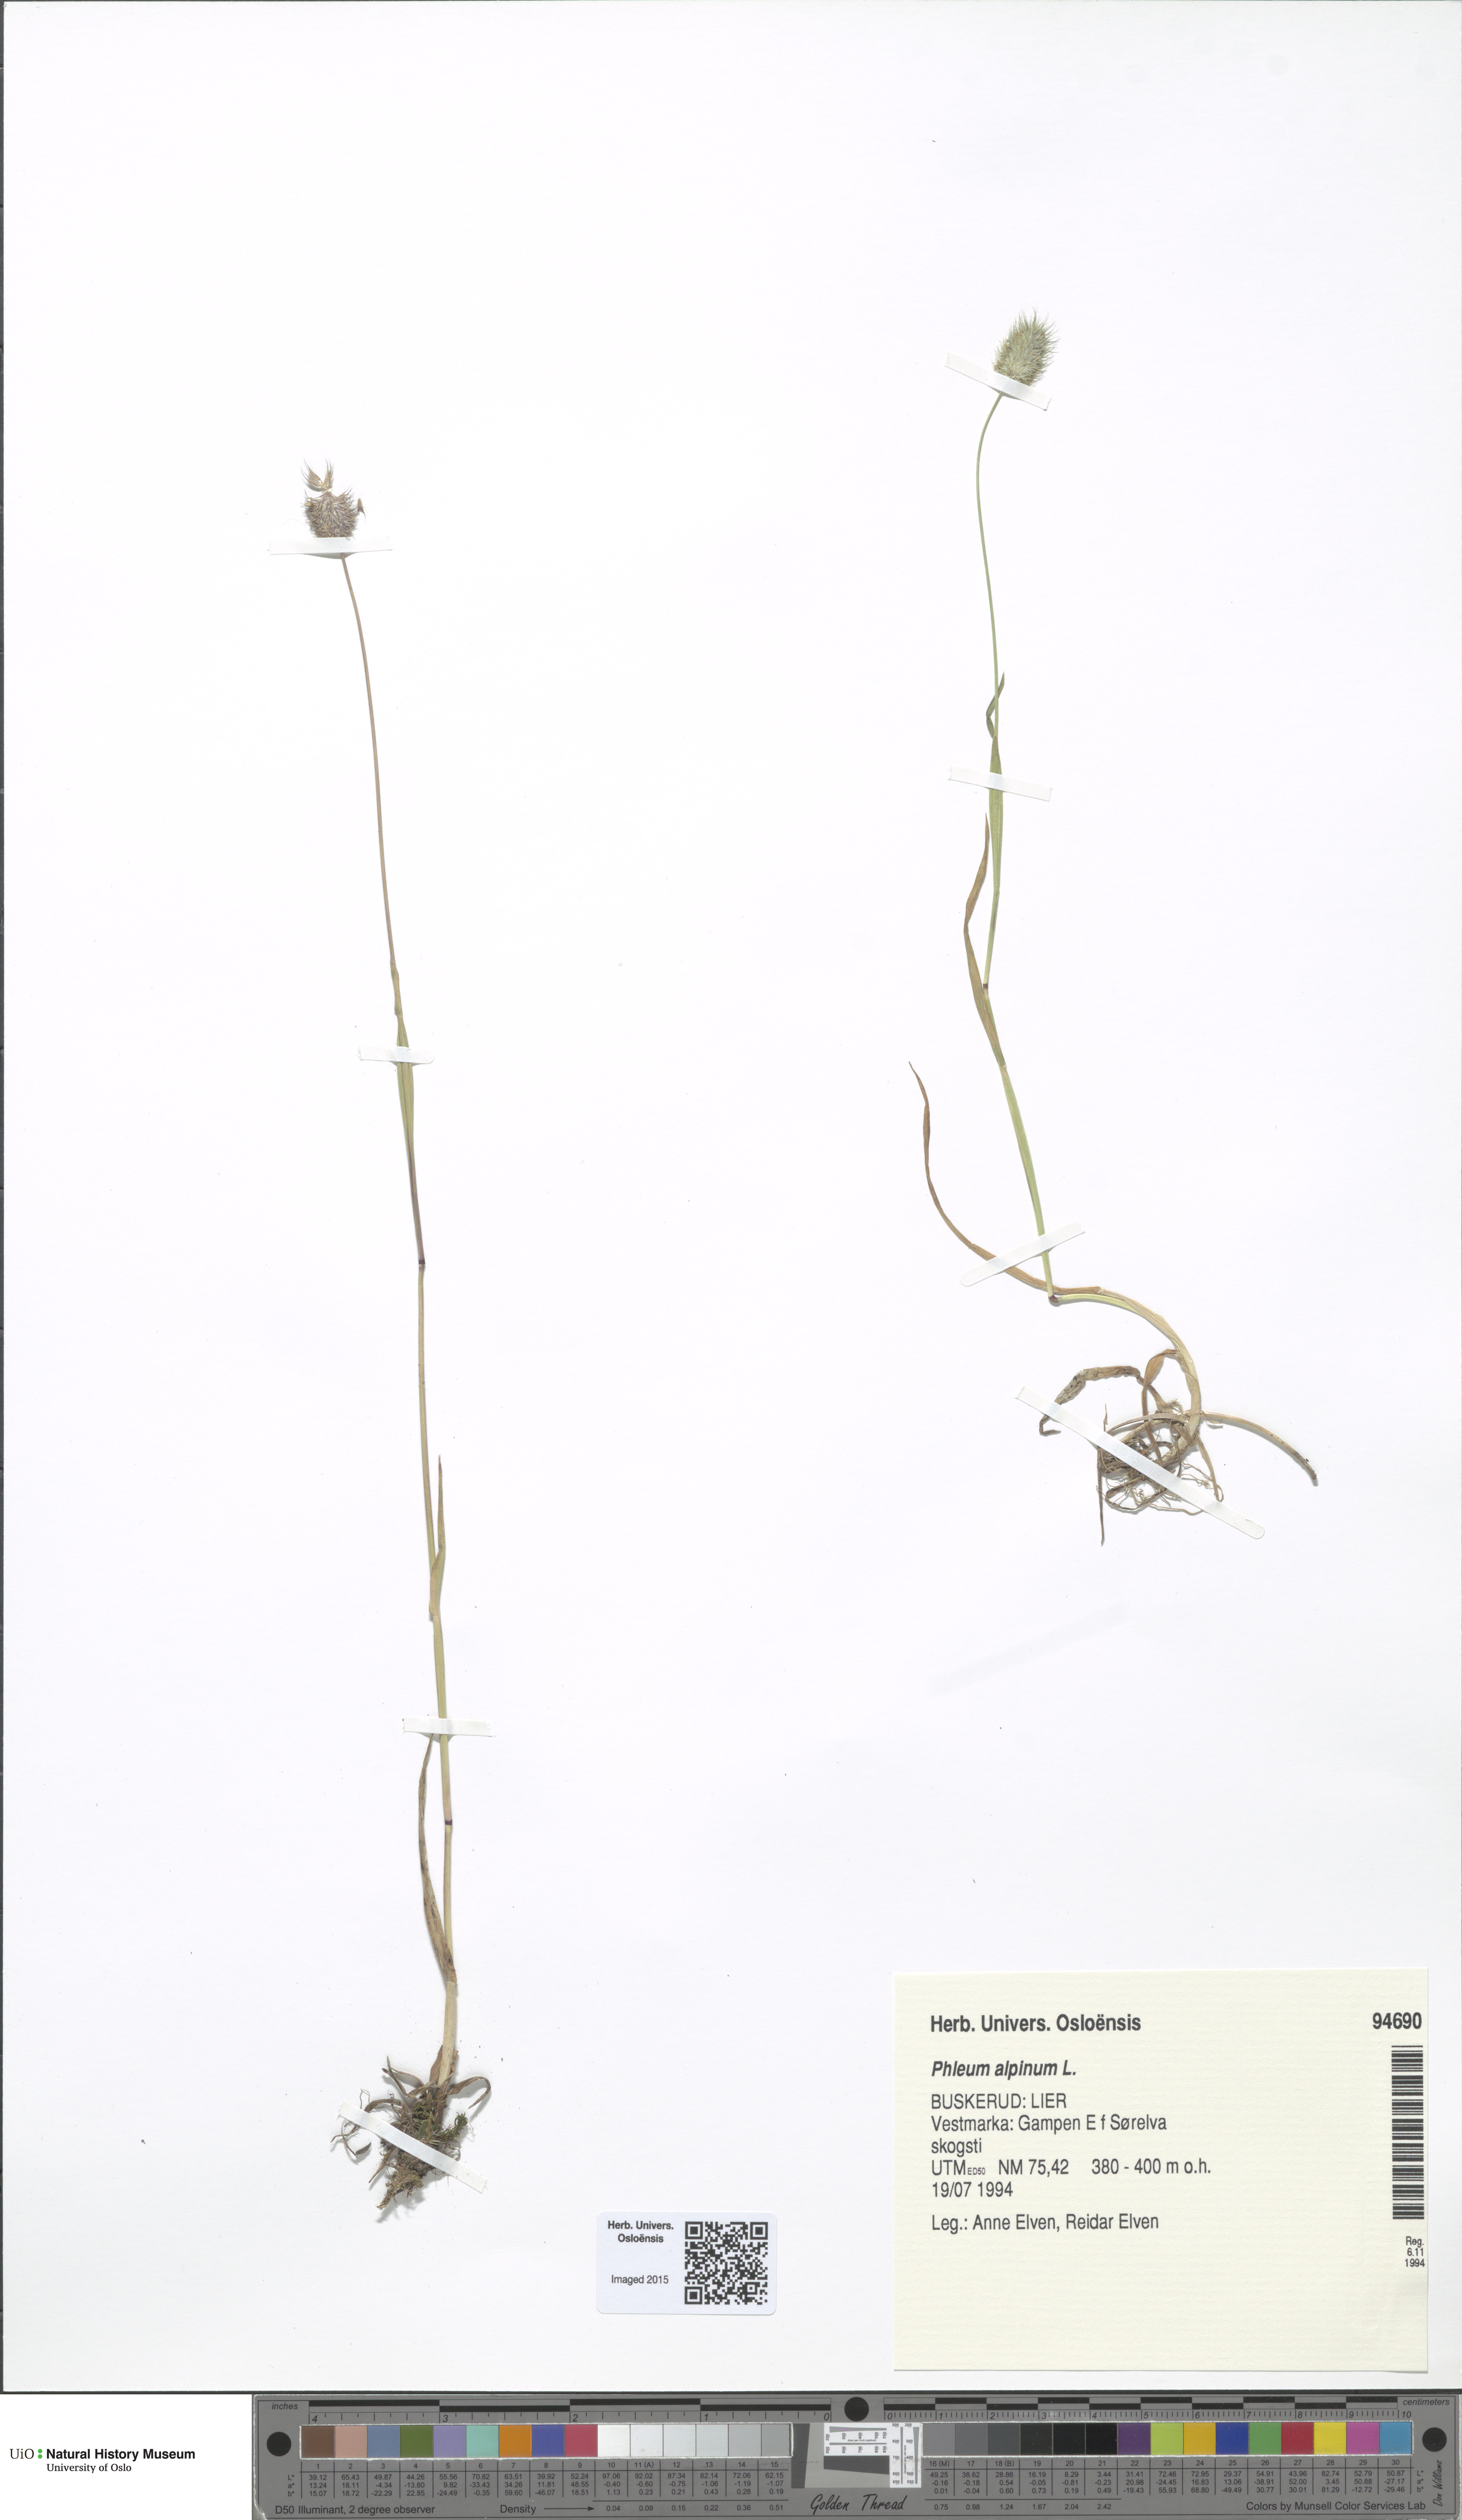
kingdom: Plantae
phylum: Tracheophyta
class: Liliopsida
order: Poales
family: Poaceae
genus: Phleum
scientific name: Phleum alpinum
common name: Alpine cat's-tail
